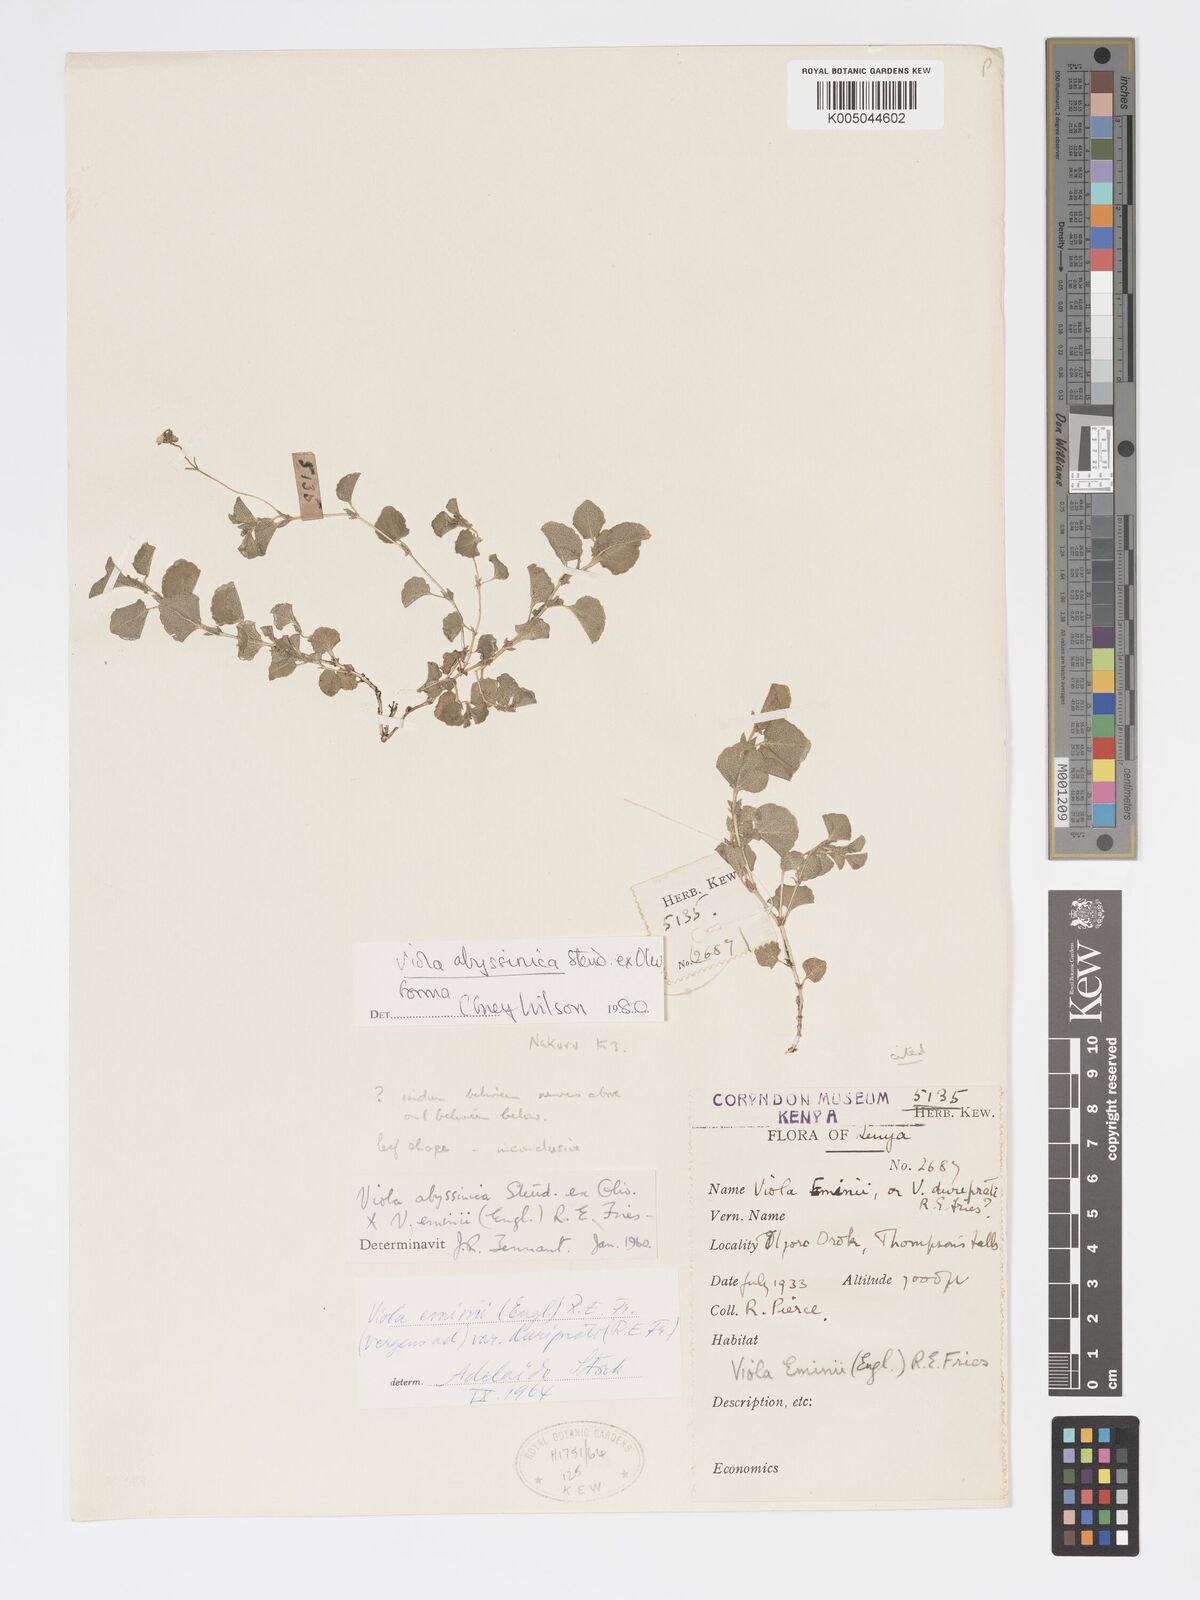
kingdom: Plantae
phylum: Tracheophyta
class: Magnoliopsida
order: Malpighiales
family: Violaceae
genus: Viola
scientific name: Viola abyssinica
